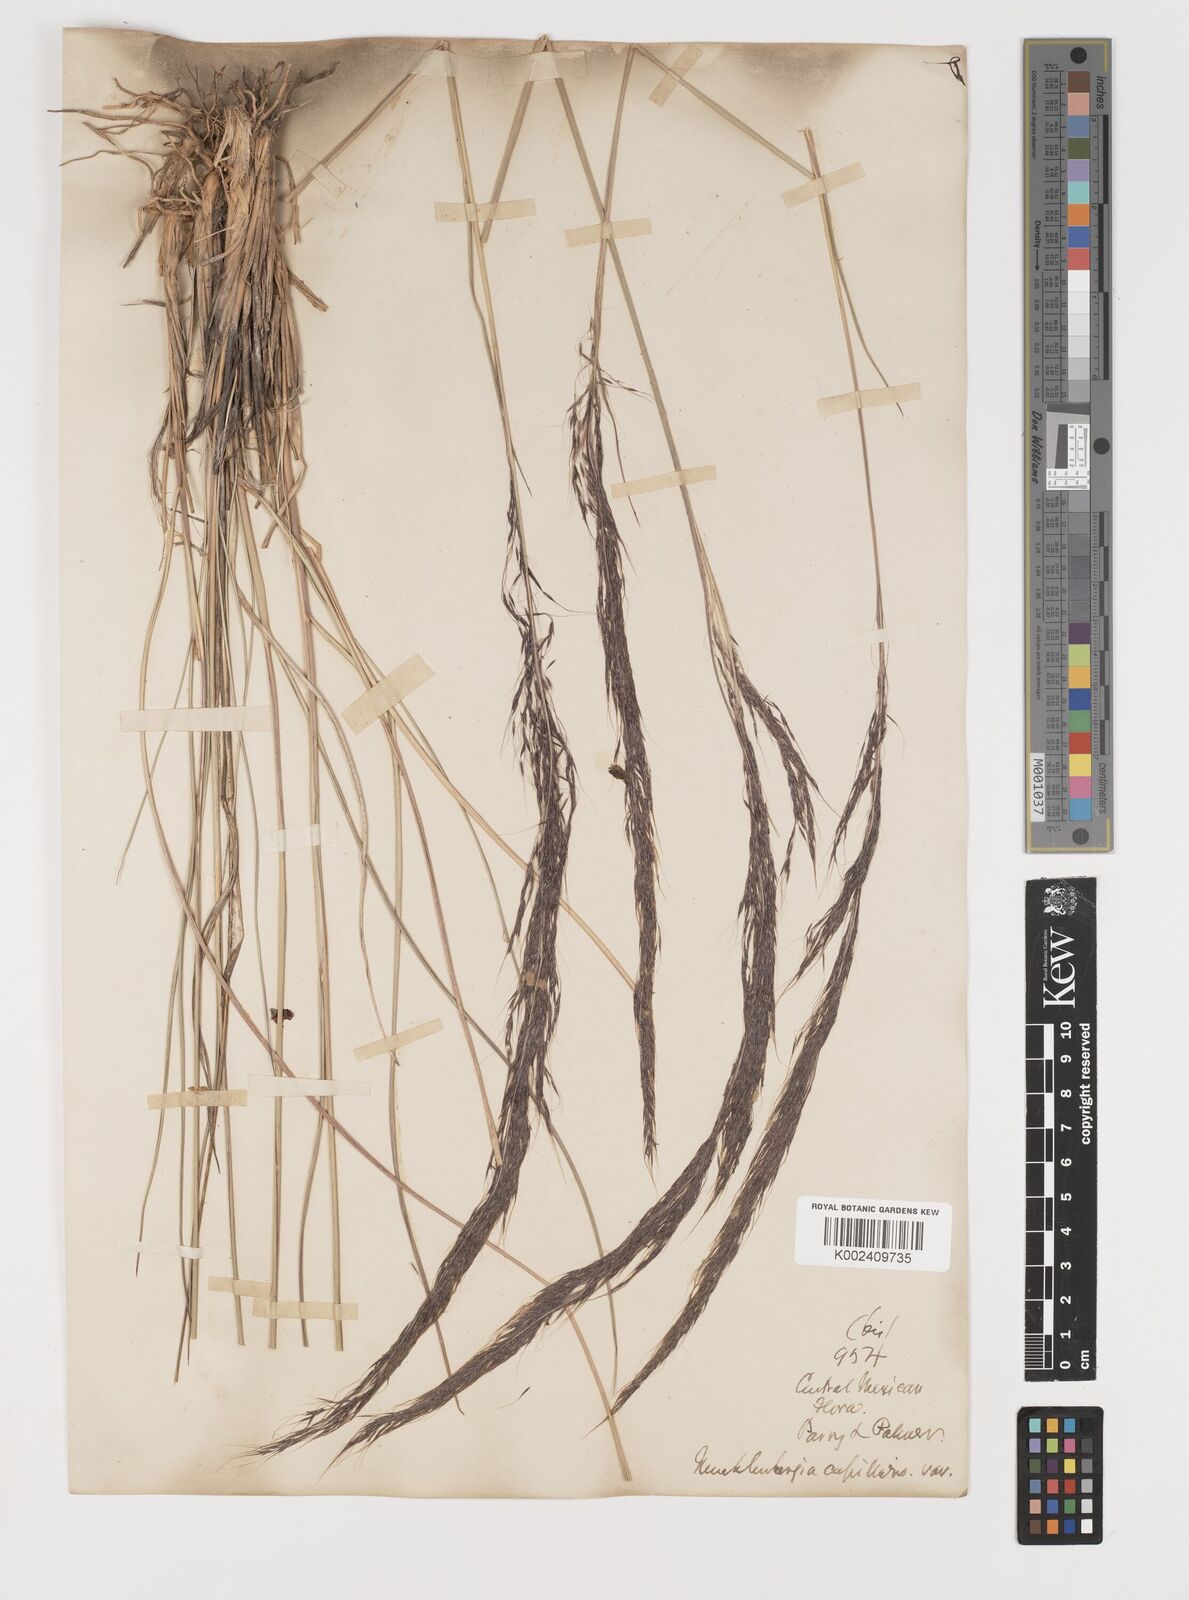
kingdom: Plantae
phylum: Tracheophyta
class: Liliopsida
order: Poales
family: Poaceae
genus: Muhlenbergia
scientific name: Muhlenbergia rigida
